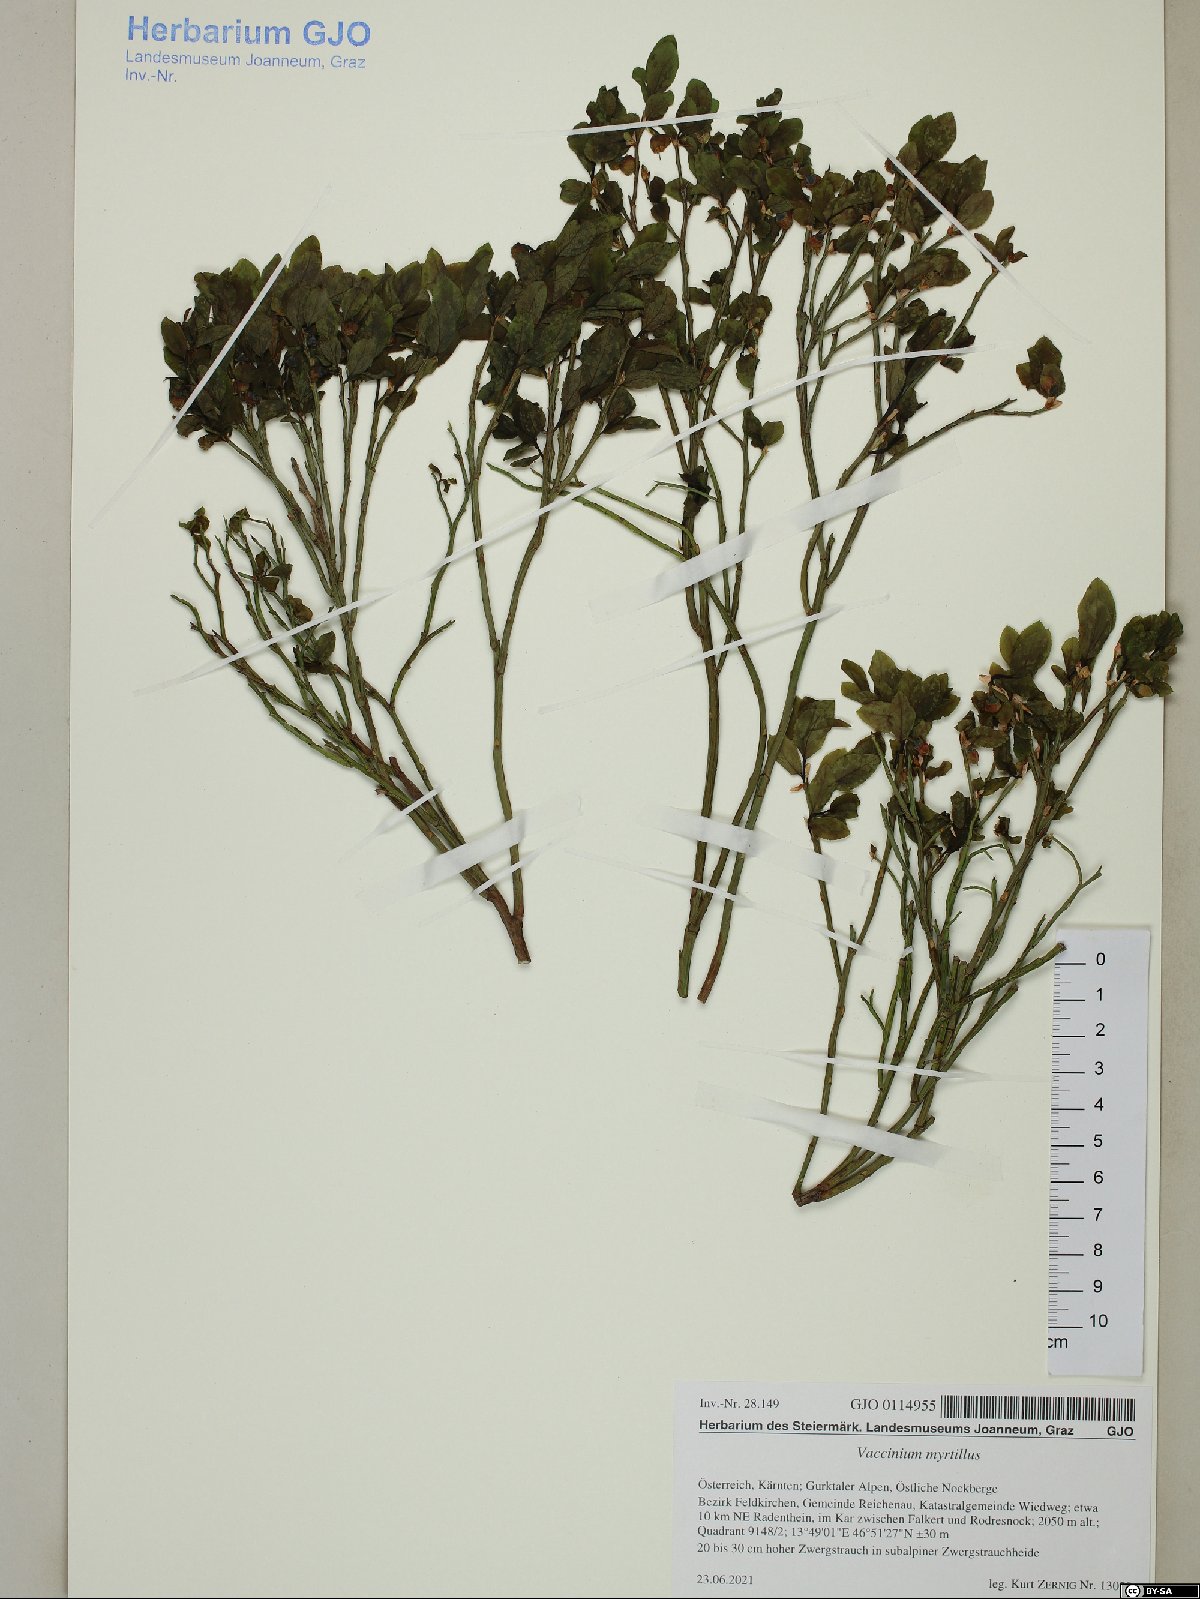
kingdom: Plantae
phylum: Tracheophyta
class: Magnoliopsida
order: Ericales
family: Ericaceae
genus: Vaccinium
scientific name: Vaccinium myrtillus
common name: Bilberry
